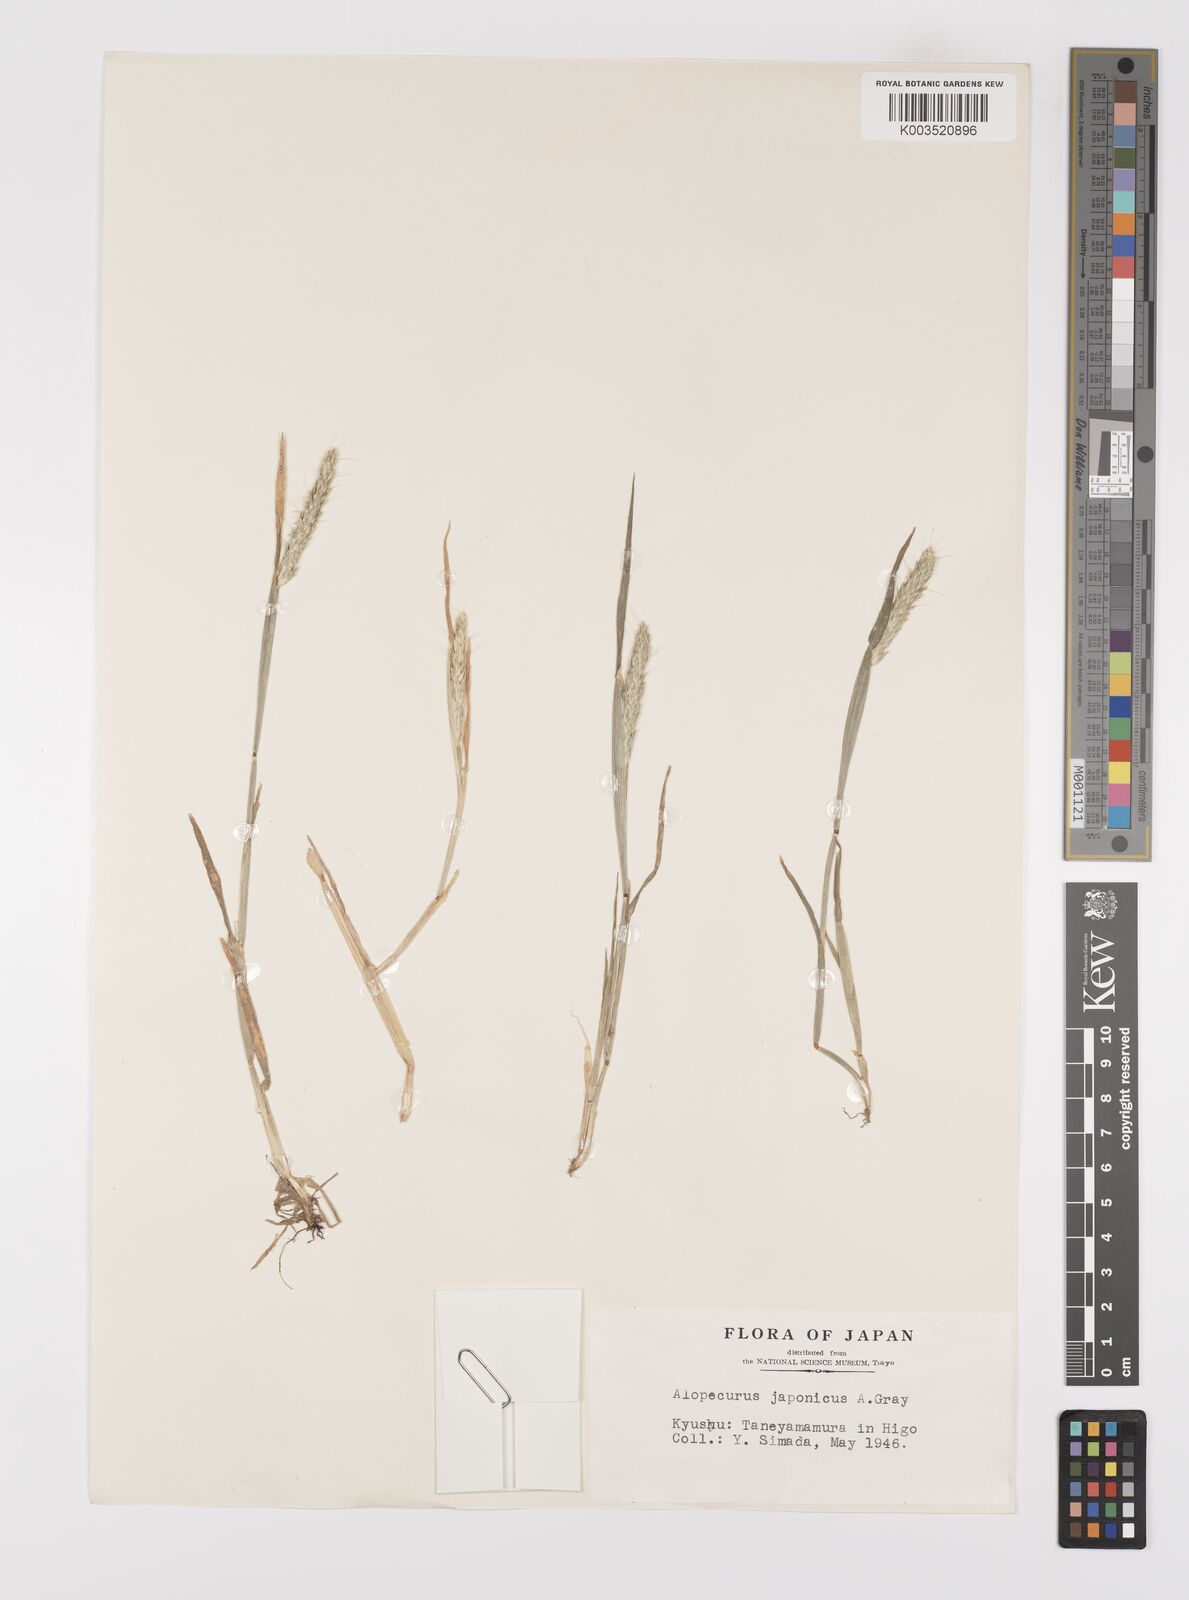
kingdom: Plantae
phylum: Tracheophyta
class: Liliopsida
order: Poales
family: Poaceae
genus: Alopecurus
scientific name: Alopecurus japonicus
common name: Japanese foxtail
